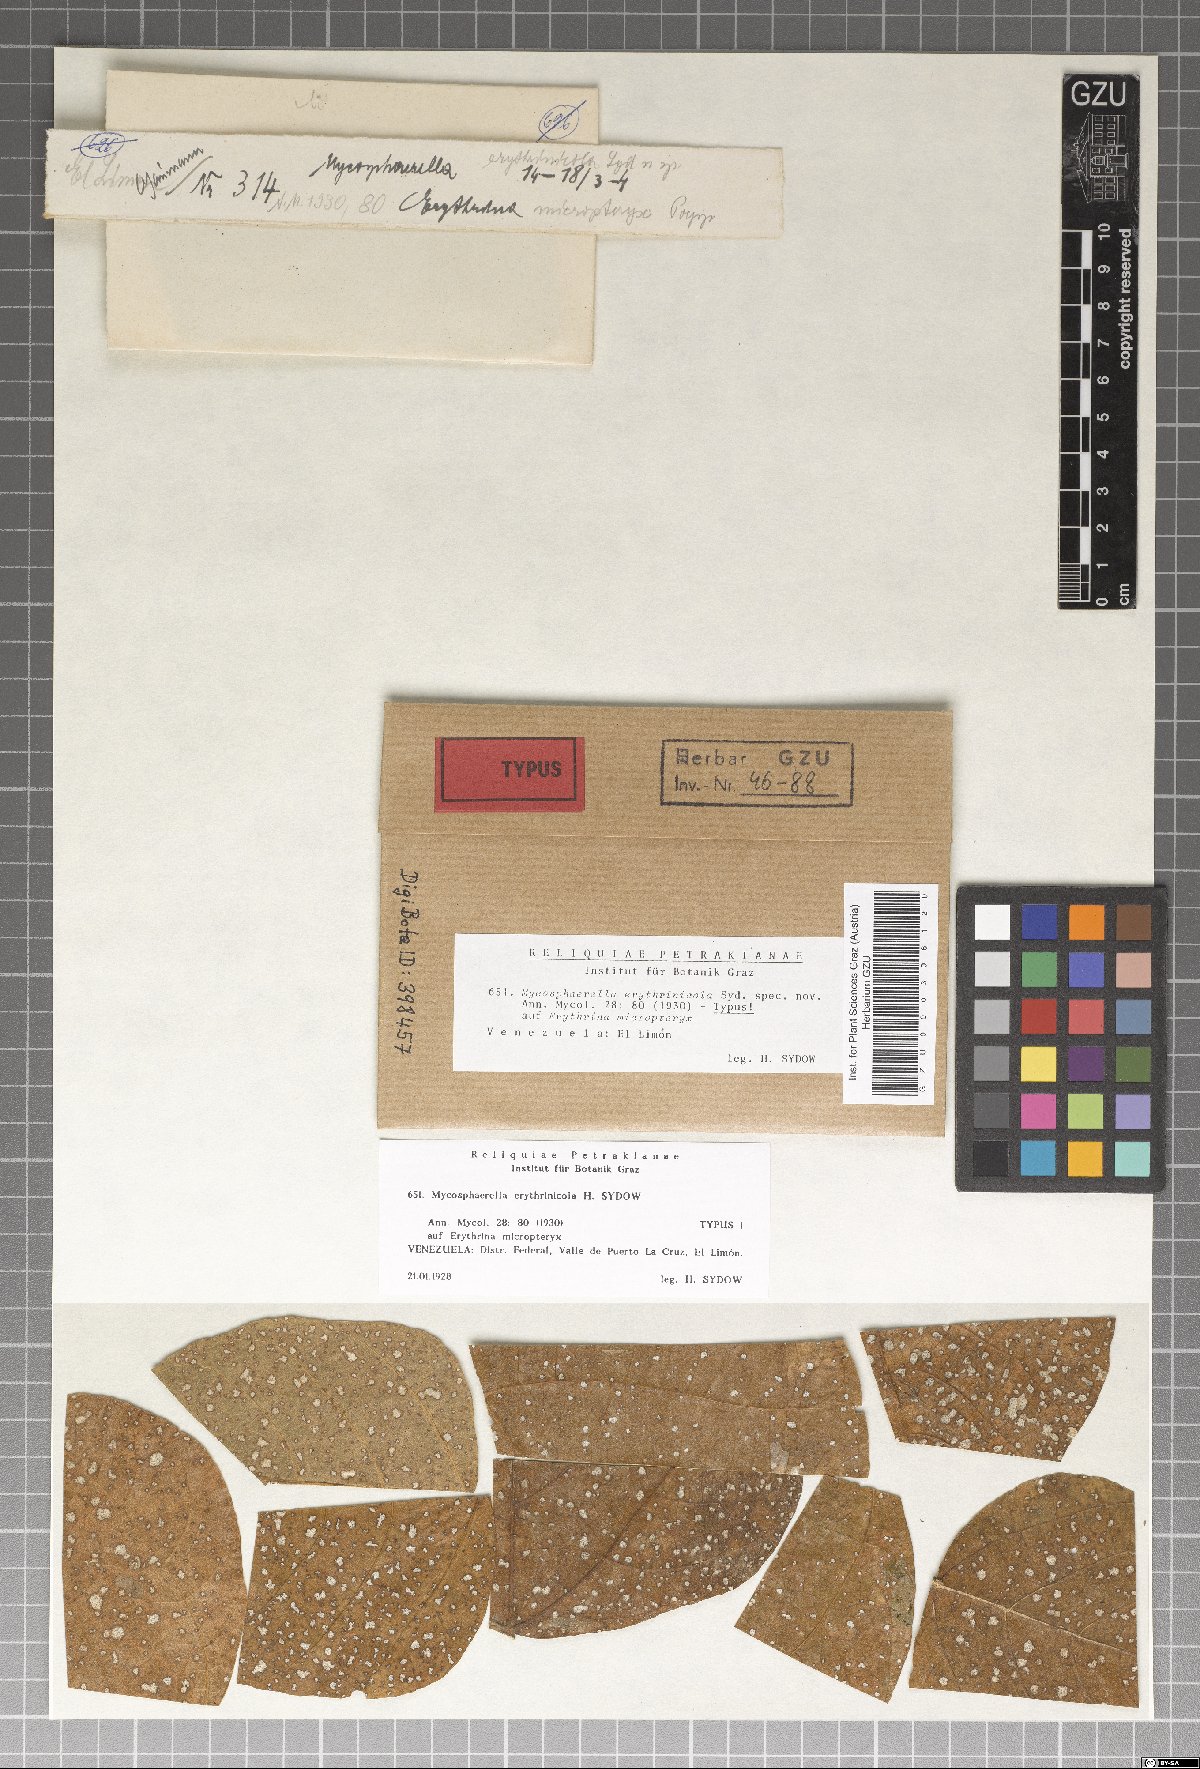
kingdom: Fungi
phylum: Ascomycota
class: Dothideomycetes
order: Mycosphaerellales
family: Mycosphaerellaceae
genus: Mycosphaerella
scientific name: Mycosphaerella erythrinicola
